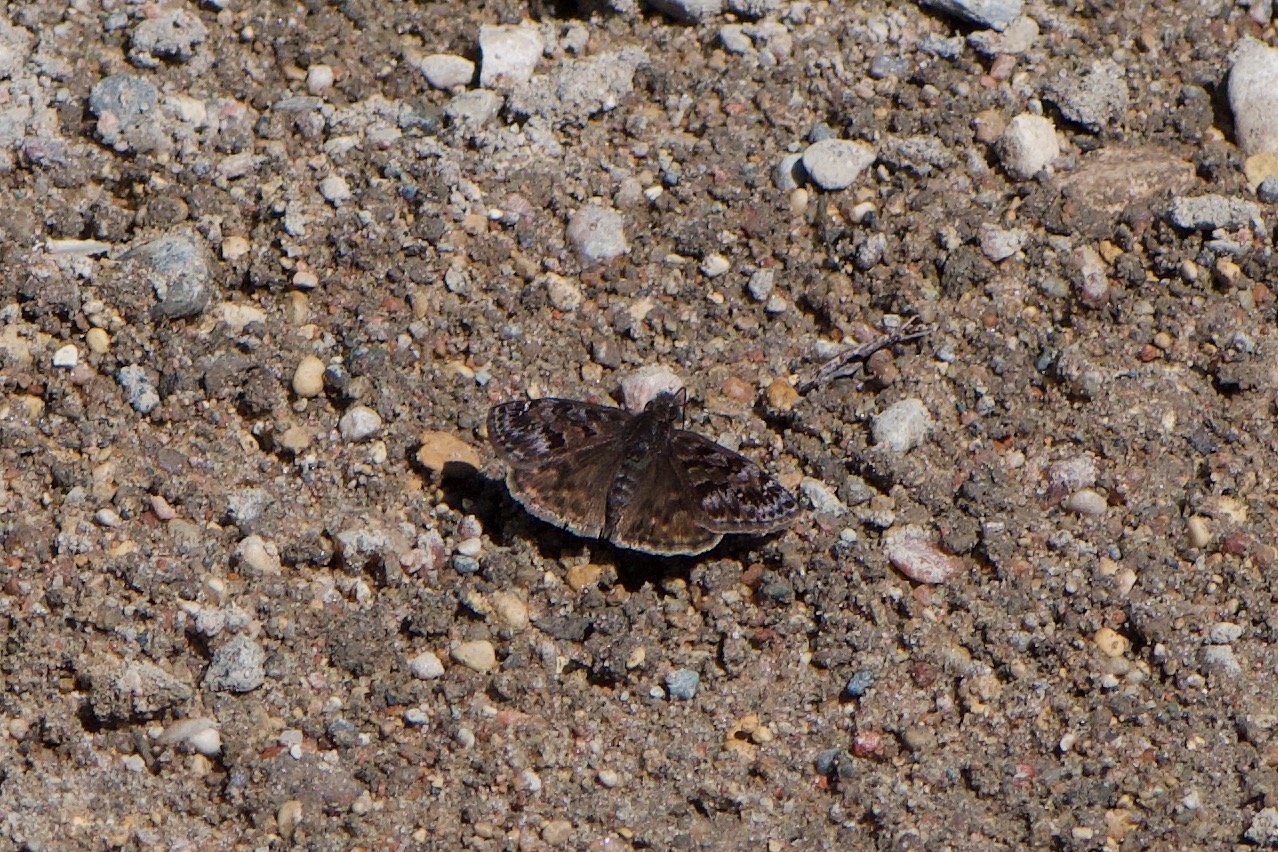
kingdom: Animalia
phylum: Arthropoda
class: Insecta
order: Lepidoptera
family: Hesperiidae
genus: Erynnis
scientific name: Erynnis martialis
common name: Mottled Duskywing
